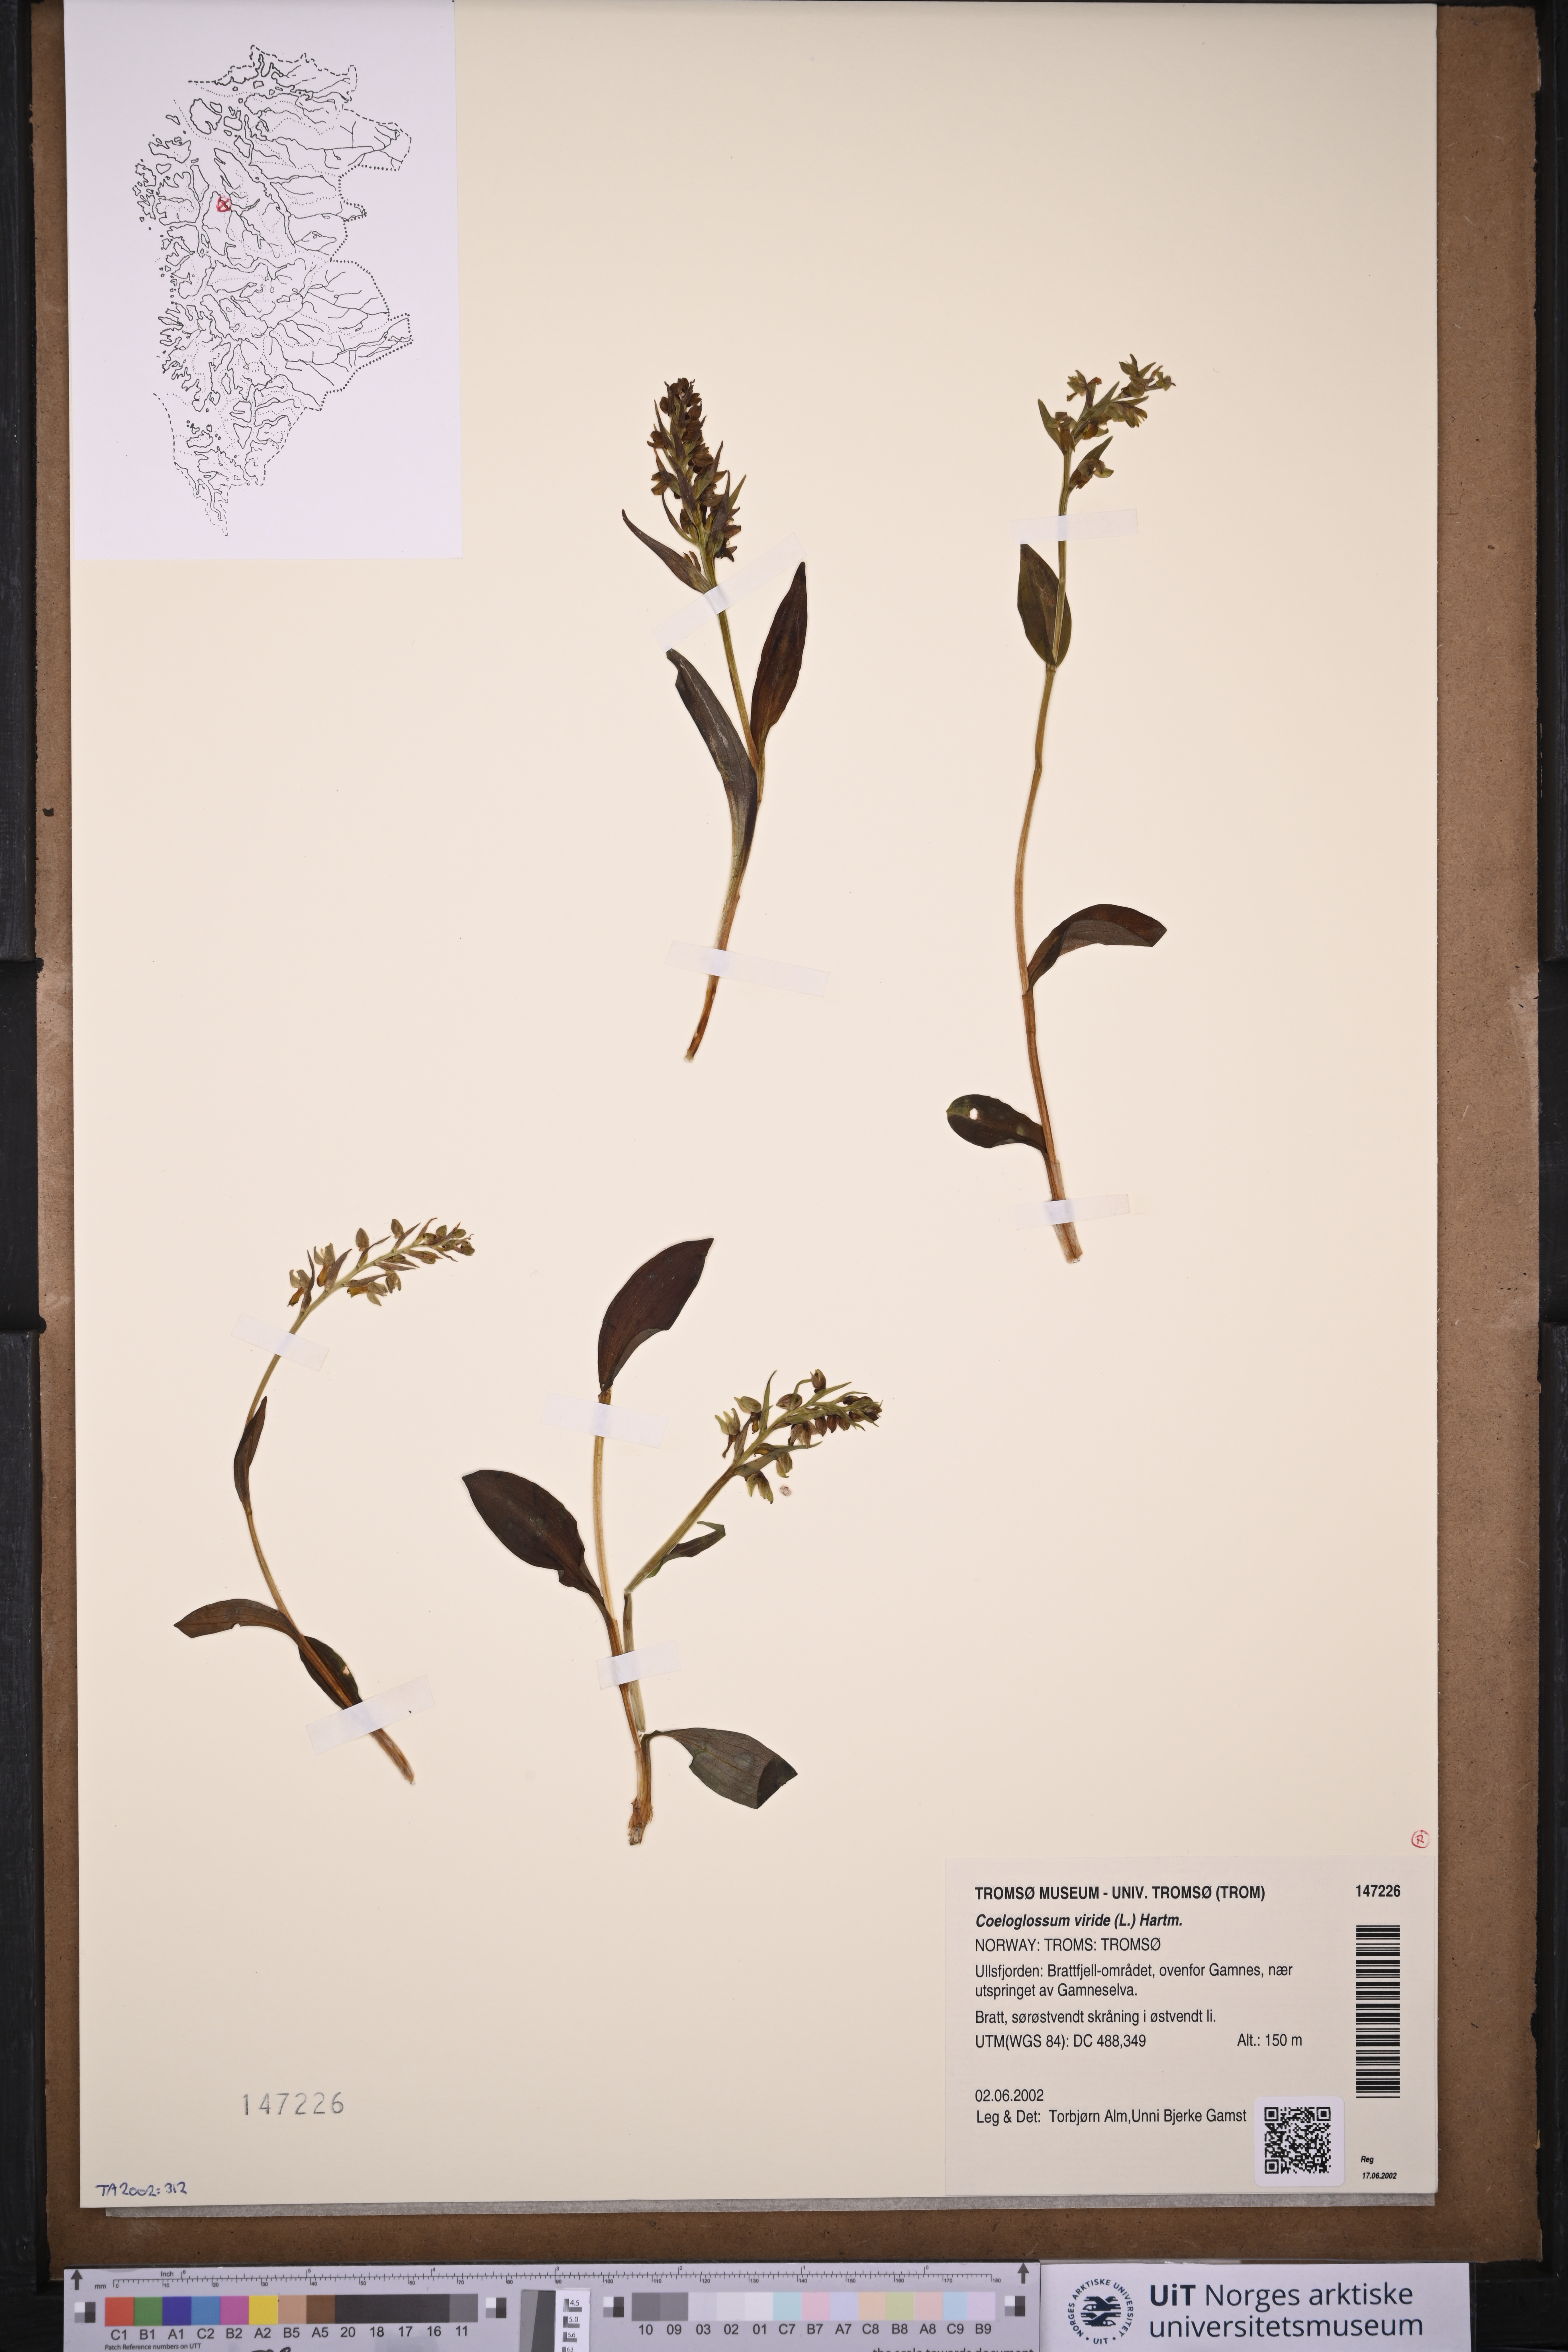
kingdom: Plantae
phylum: Tracheophyta
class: Liliopsida
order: Asparagales
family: Orchidaceae
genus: Dactylorhiza
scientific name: Dactylorhiza viridis
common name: Longbract frog orchid
